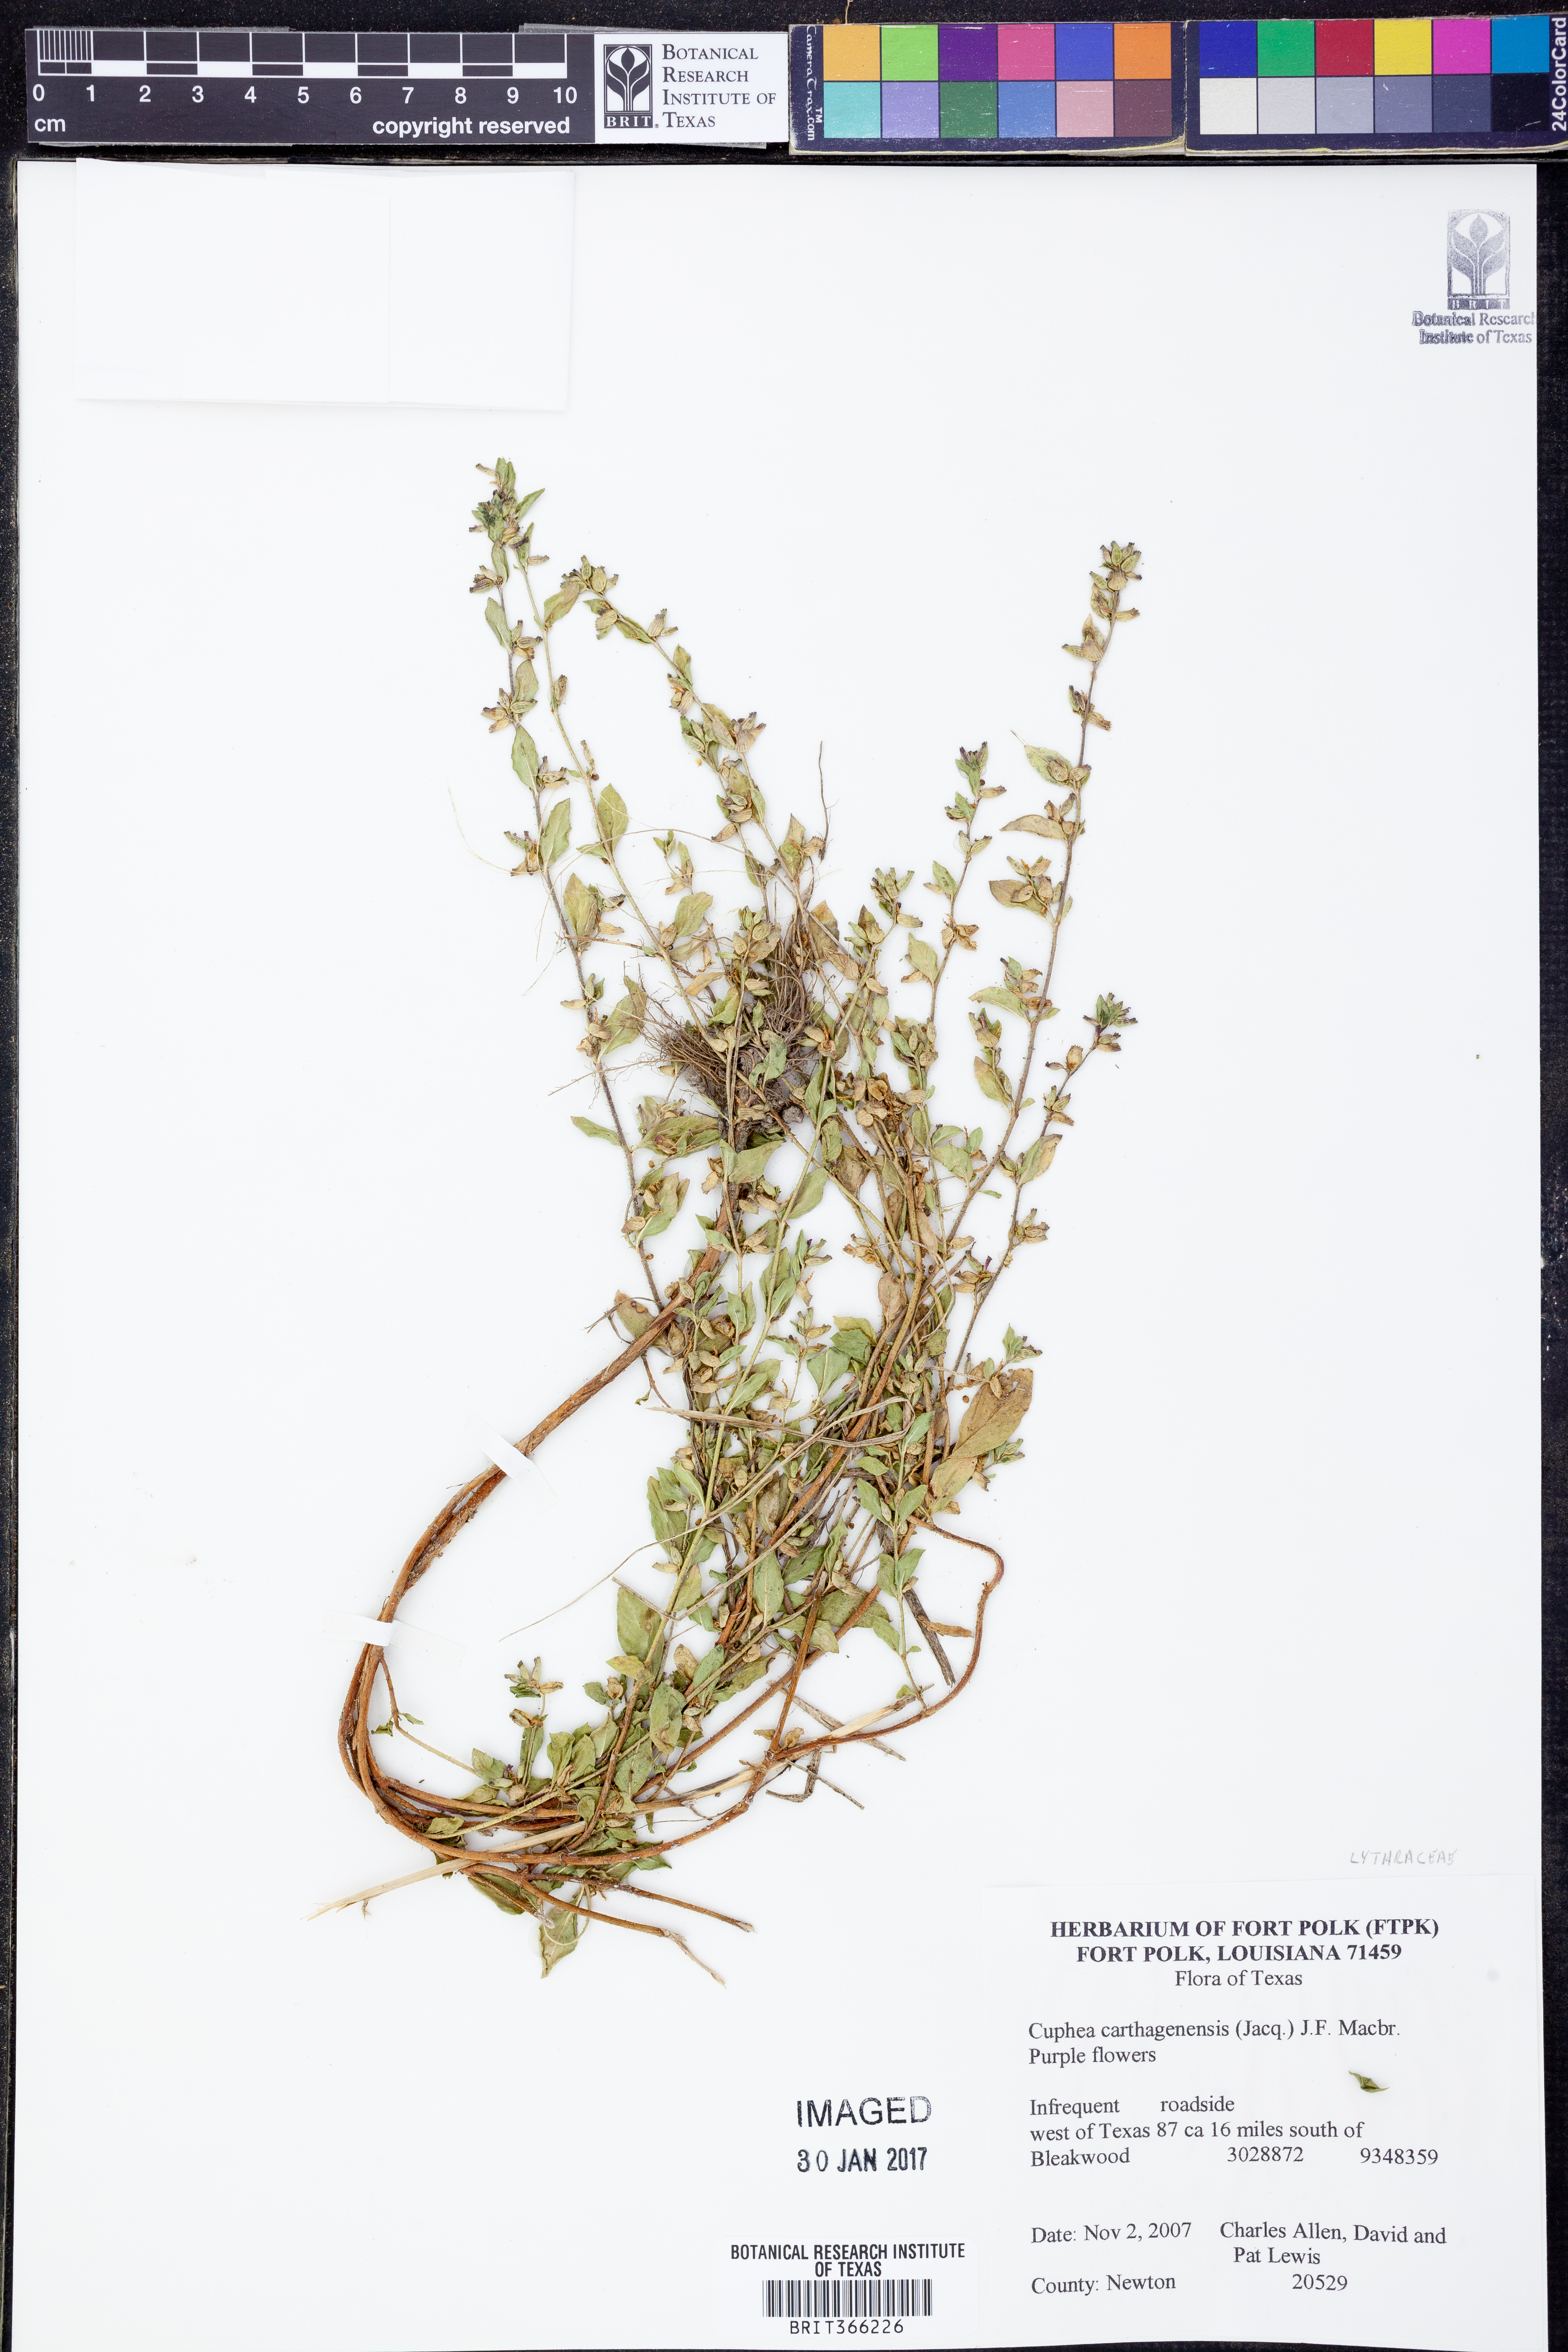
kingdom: Plantae
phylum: Tracheophyta
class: Magnoliopsida
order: Myrtales
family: Lythraceae
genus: Cuphea
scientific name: Cuphea carthagenensis
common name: Colombian waxweed
